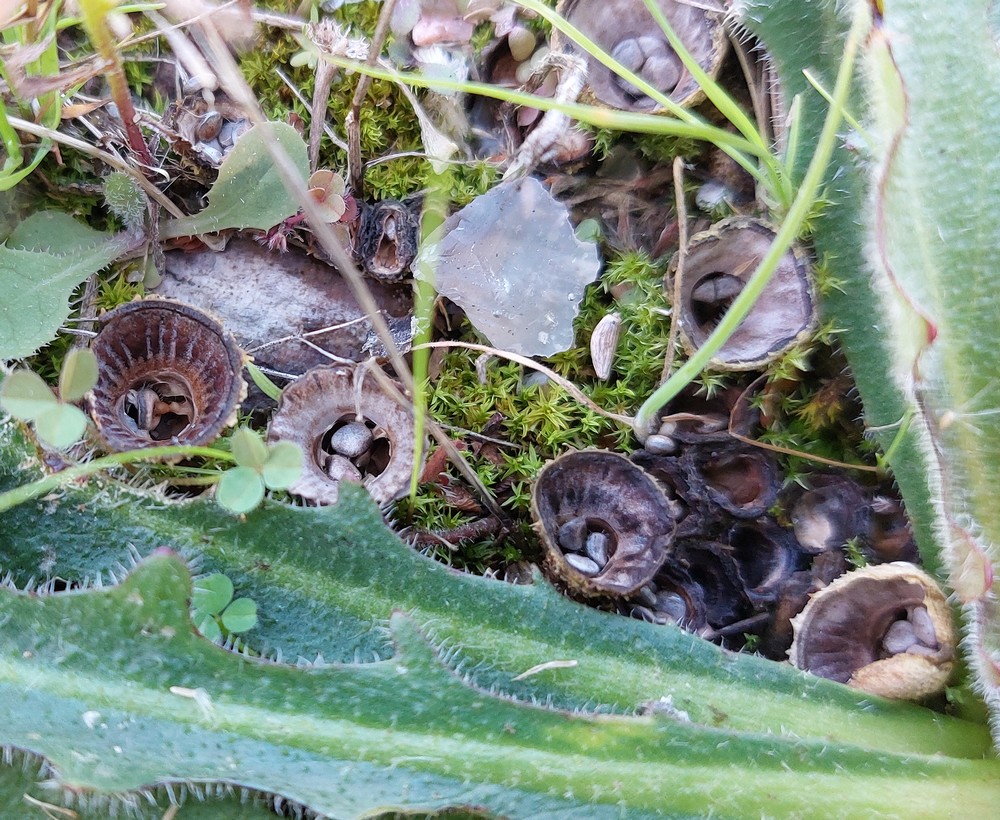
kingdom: Fungi
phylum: Basidiomycota
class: Agaricomycetes
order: Agaricales
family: Agaricaceae
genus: Cyathus
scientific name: Cyathus striatus
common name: stribet redesvamp
